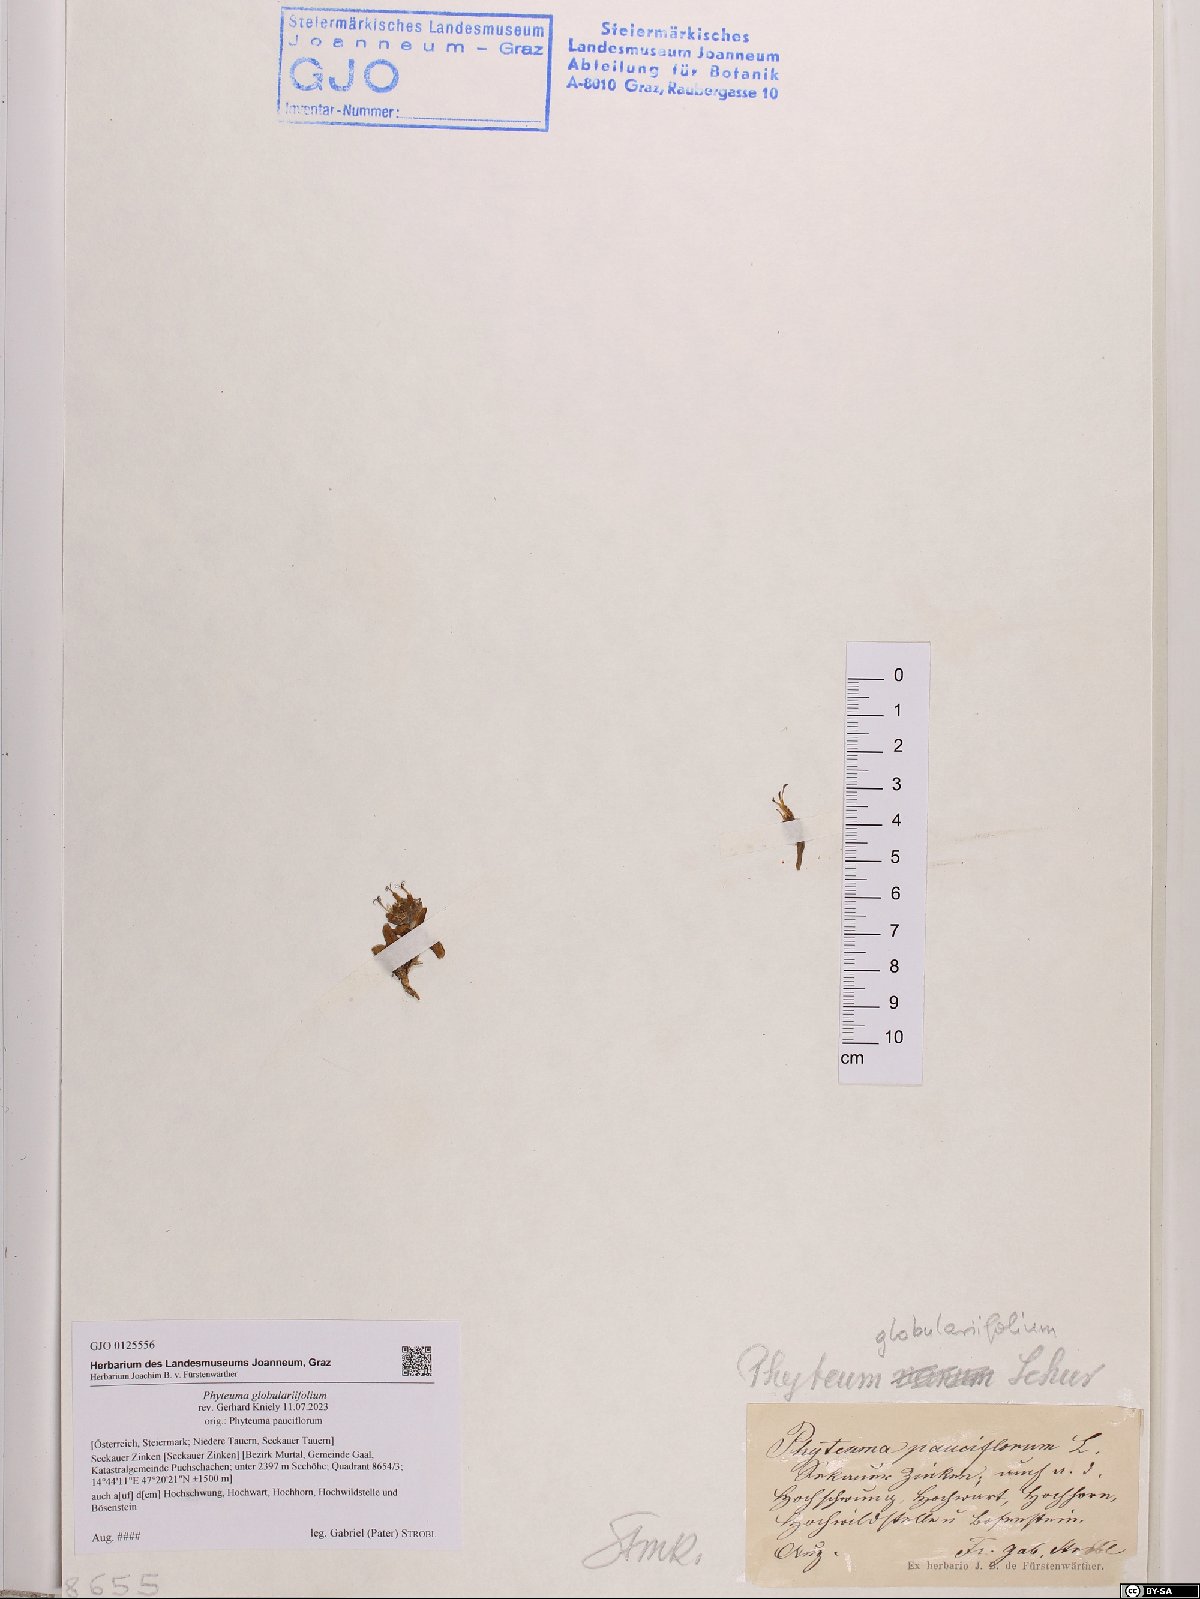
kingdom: Plantae
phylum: Tracheophyta
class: Magnoliopsida
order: Asterales
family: Campanulaceae
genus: Phyteuma
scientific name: Phyteuma globulariifolium
